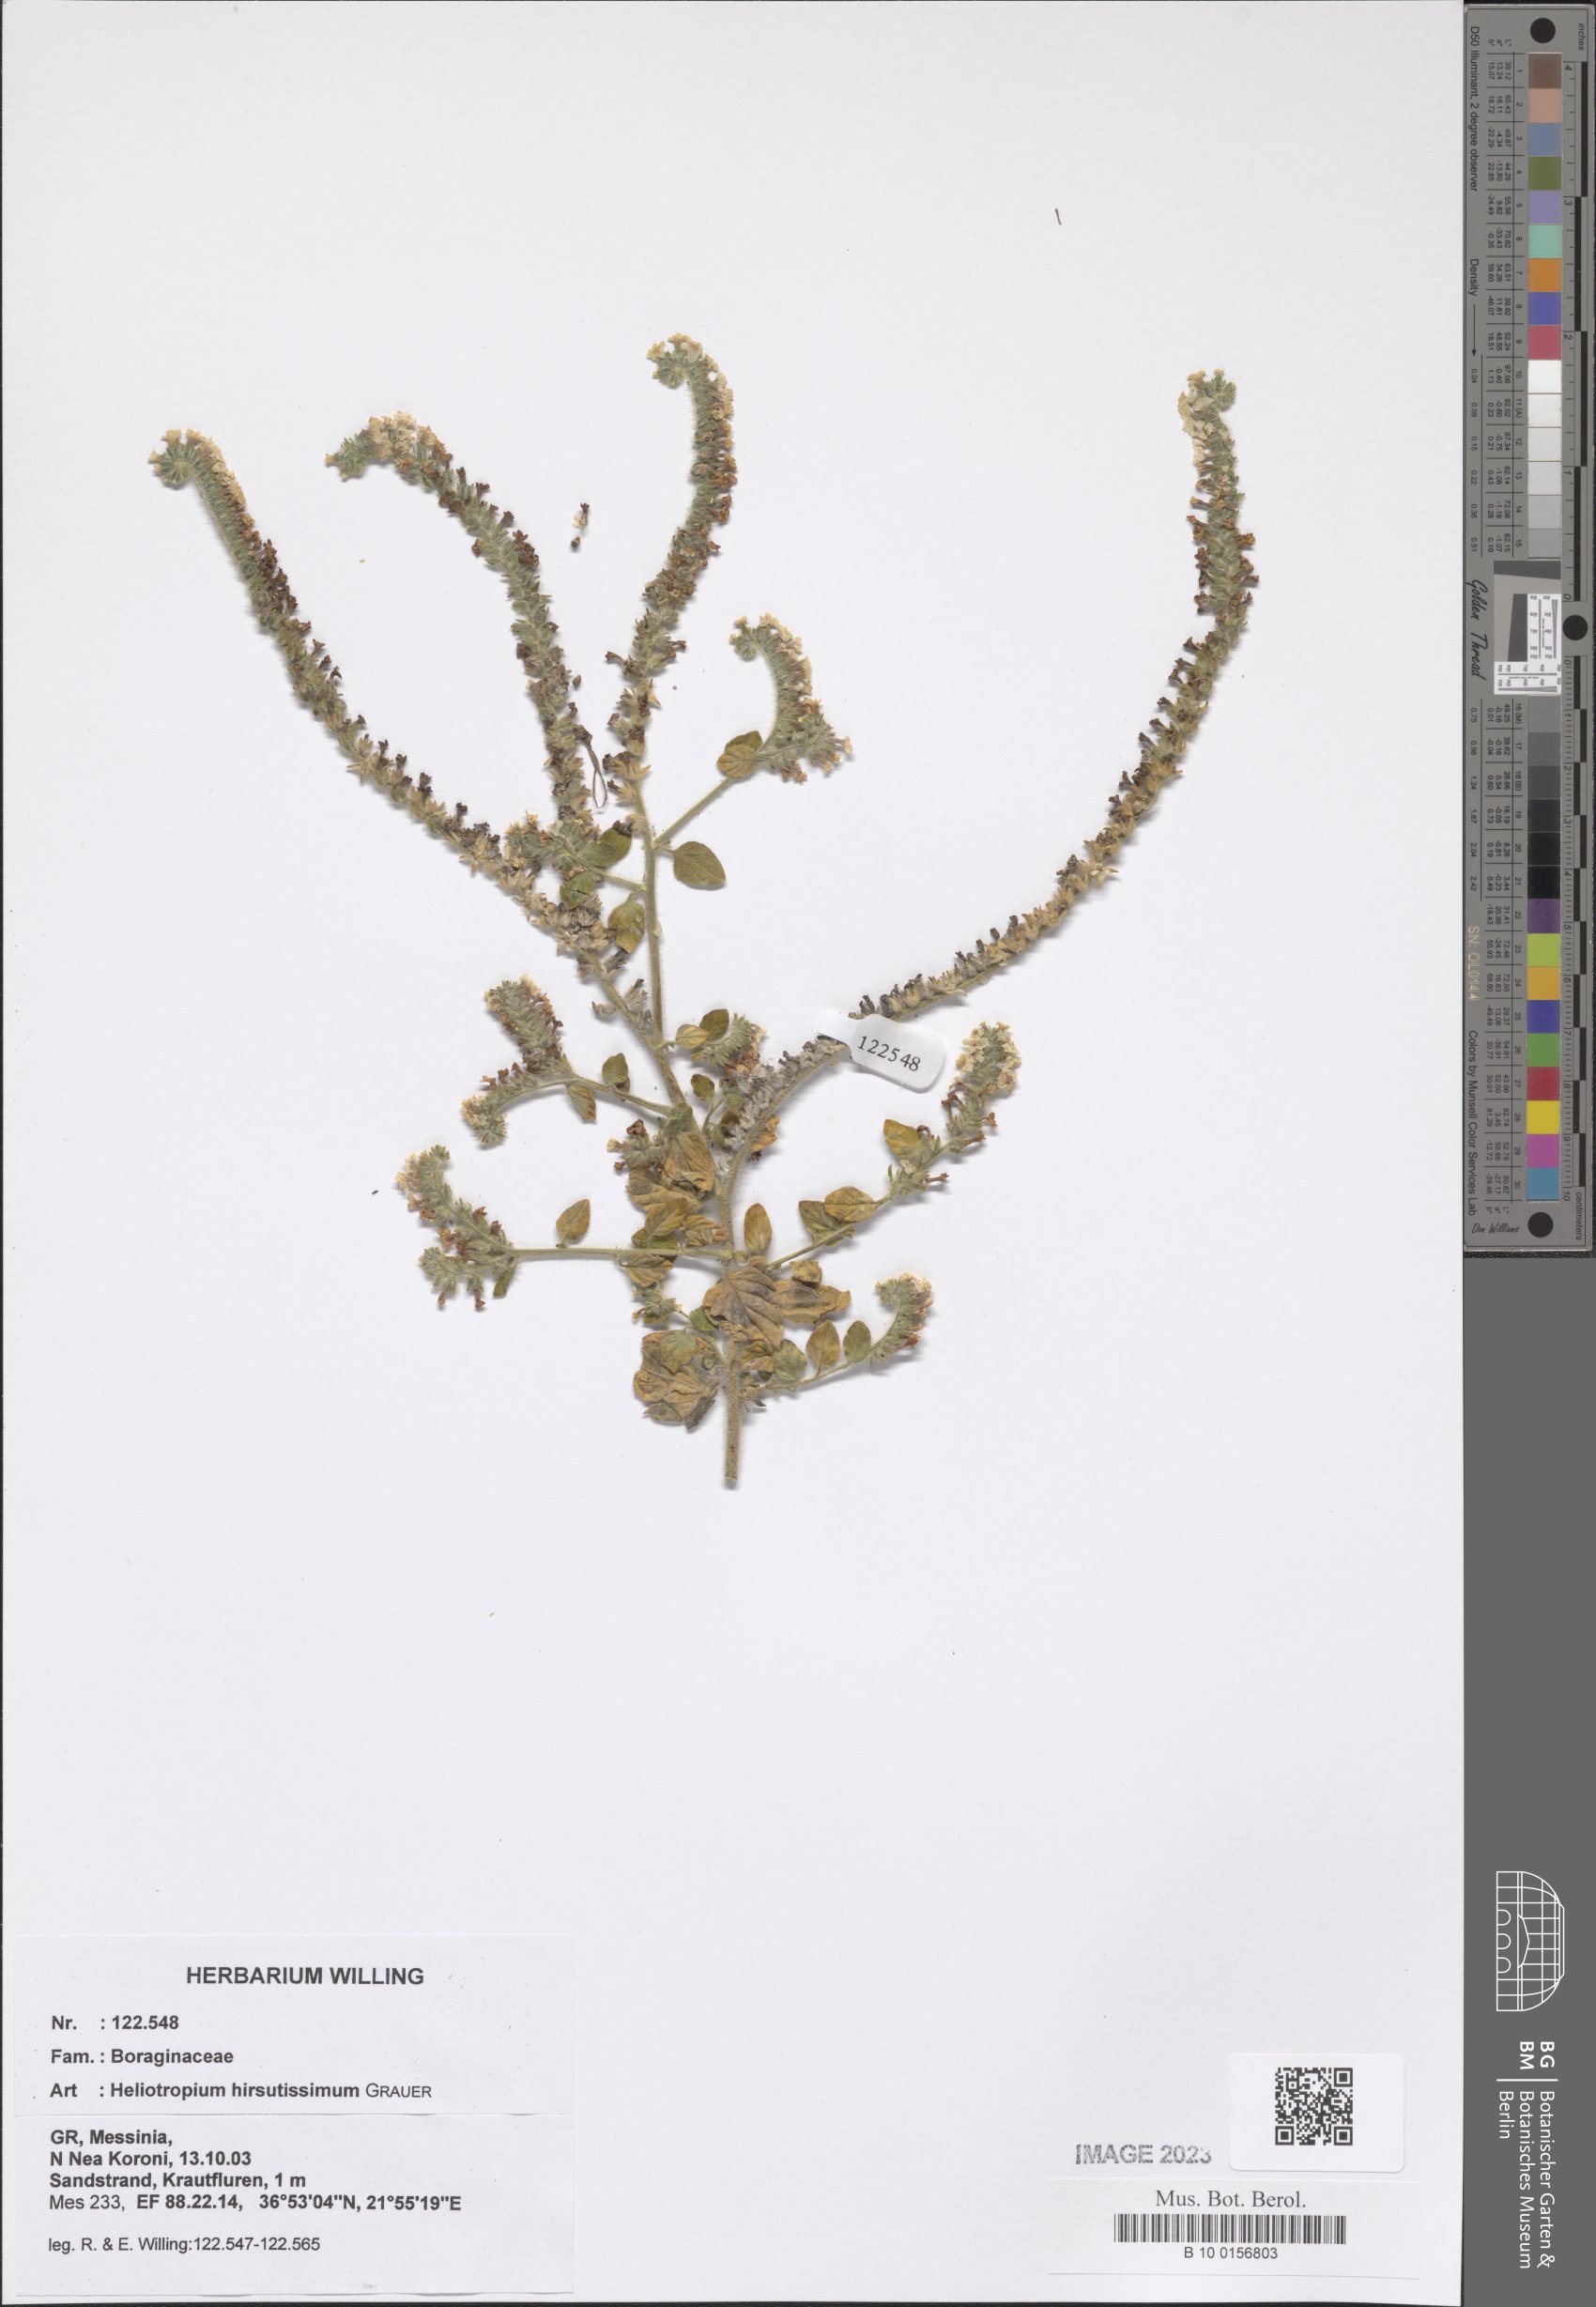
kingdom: Plantae
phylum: Tracheophyta
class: Magnoliopsida
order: Boraginales
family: Heliotropiaceae
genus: Heliotropium
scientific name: Heliotropium hirsutissimum
